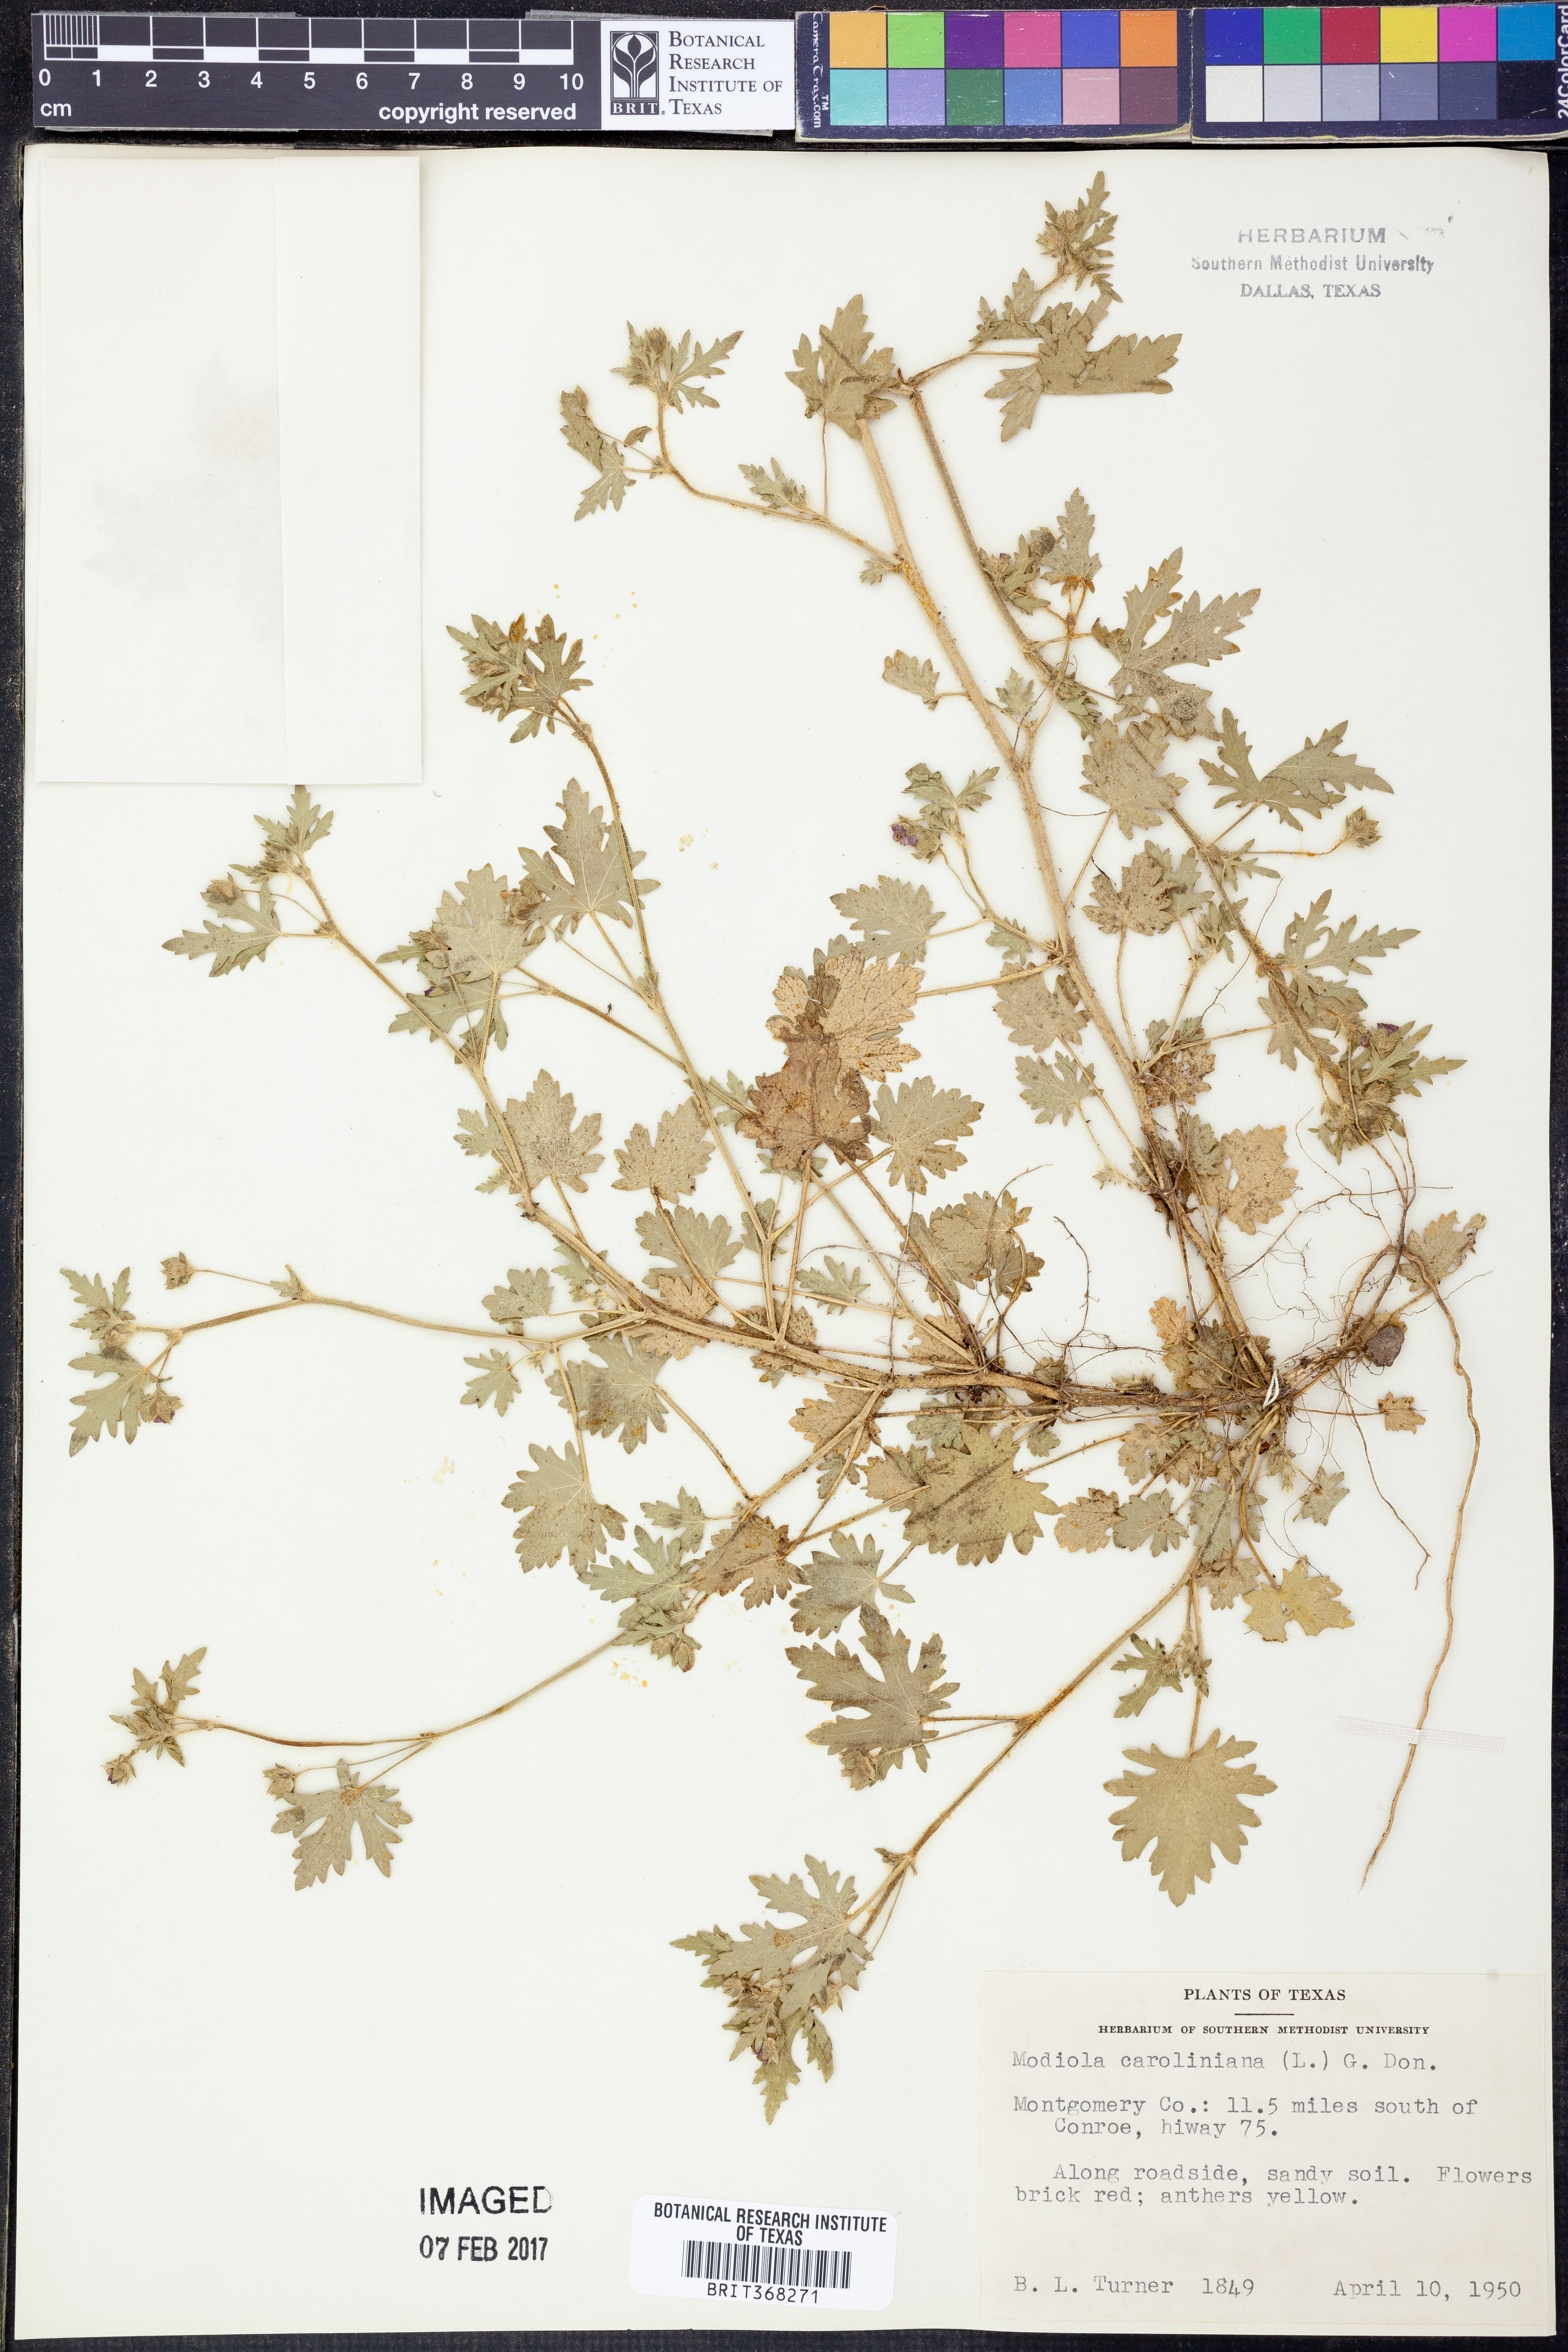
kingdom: Plantae
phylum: Tracheophyta
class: Magnoliopsida
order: Malvales
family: Malvaceae
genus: Modiola
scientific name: Modiola caroliniana
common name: Carolina bristlemallow
